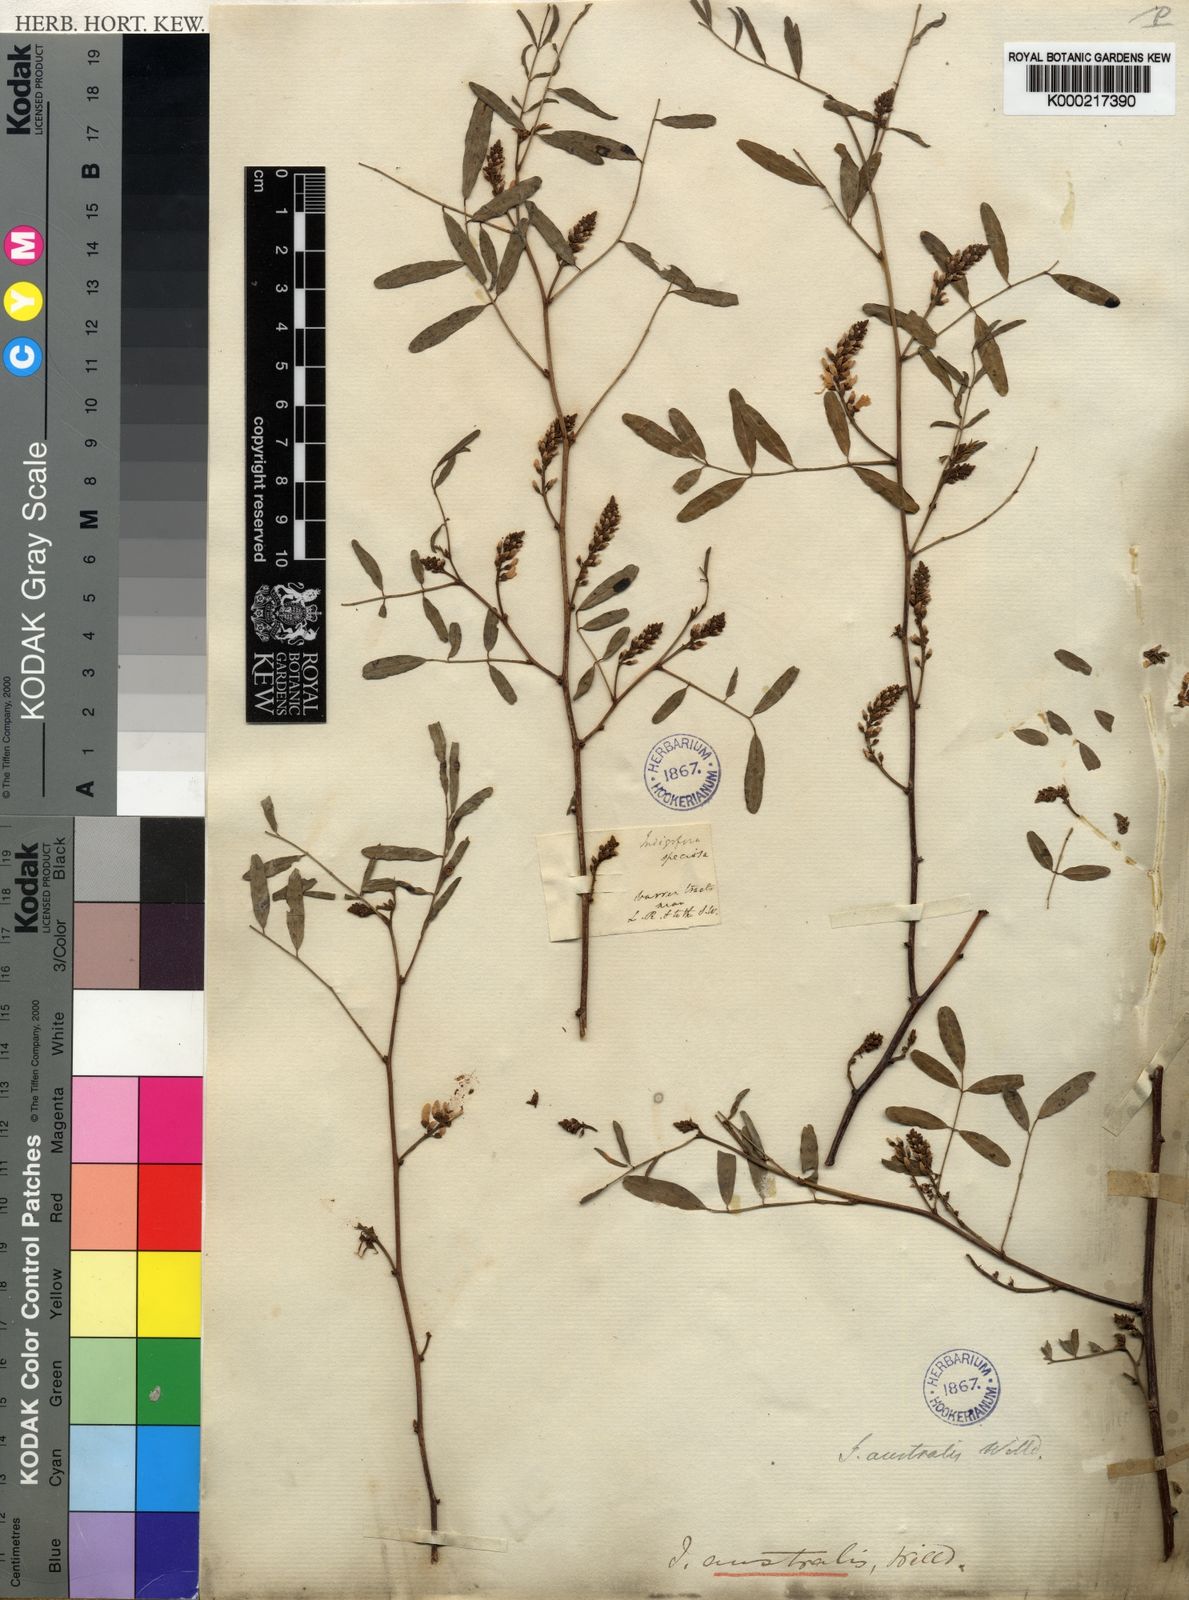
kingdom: Plantae
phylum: Tracheophyta
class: Magnoliopsida
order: Fabales
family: Fabaceae
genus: Indigofera
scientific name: Indigofera australis
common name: Australian indigo
